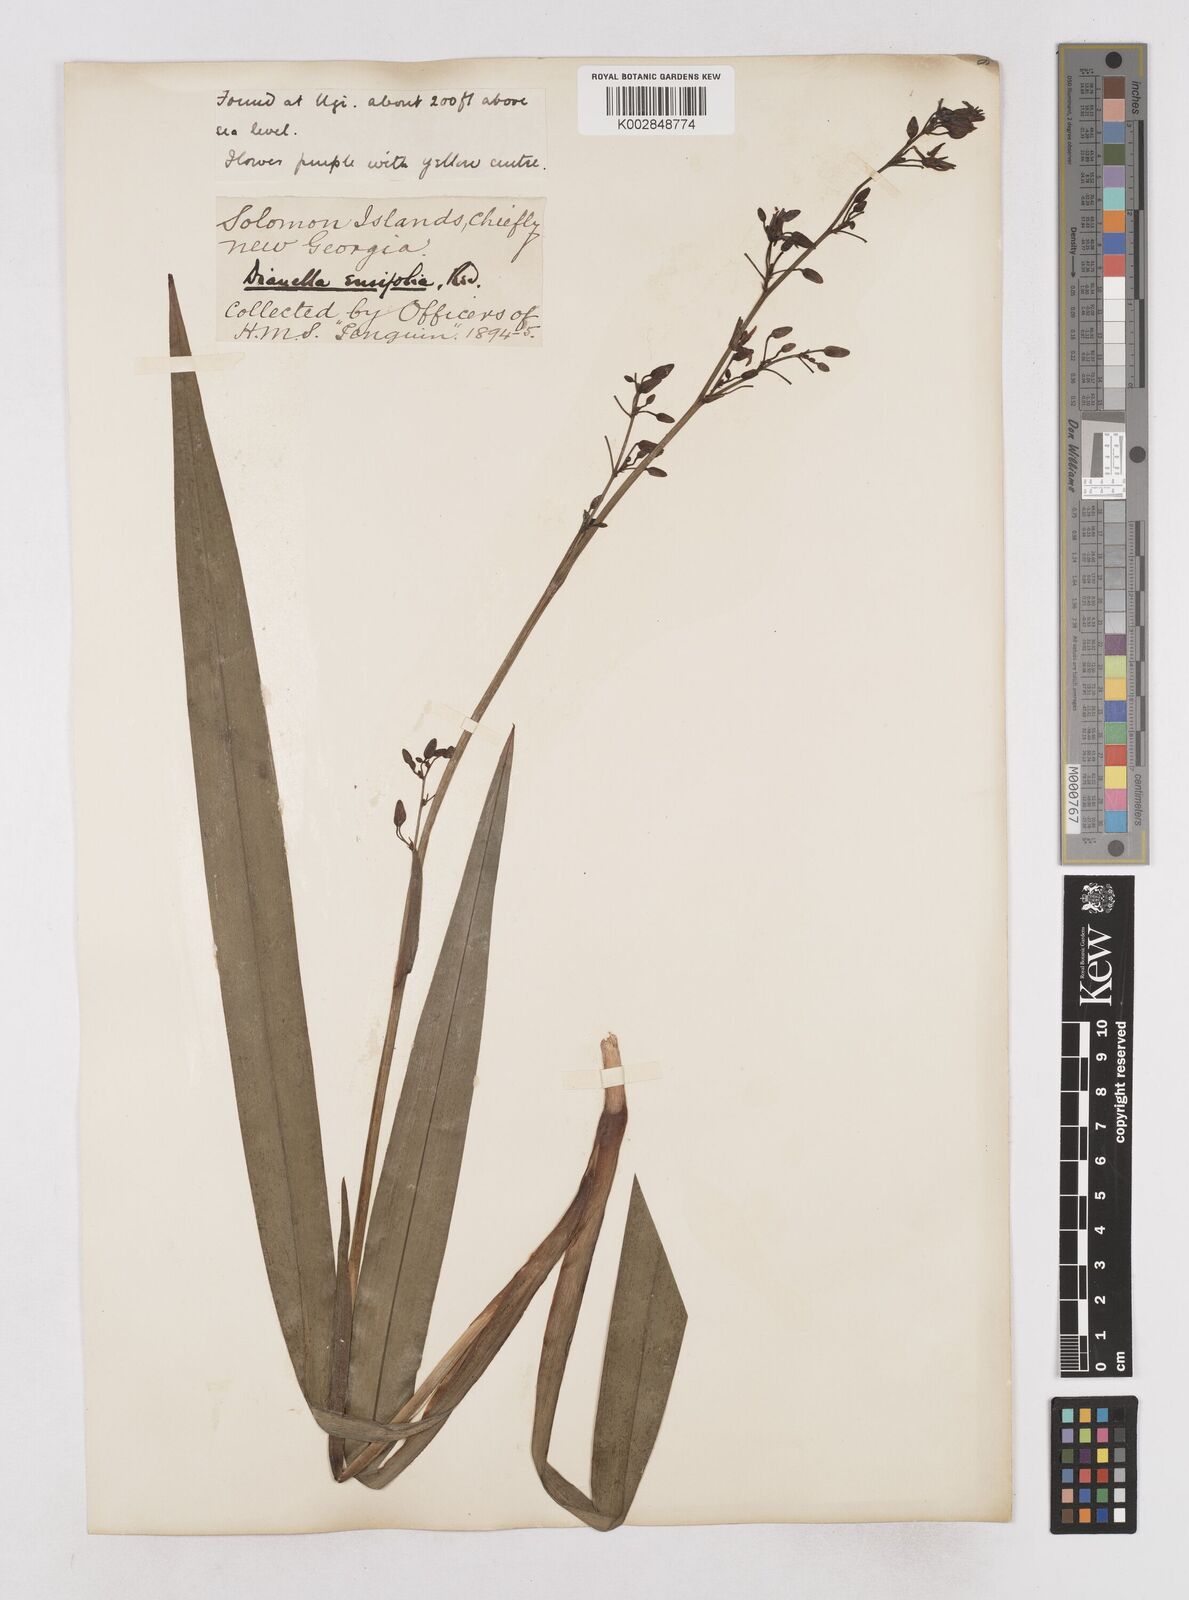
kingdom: Plantae
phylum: Tracheophyta
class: Liliopsida
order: Asparagales
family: Asphodelaceae
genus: Dianella
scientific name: Dianella ensifolia
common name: New zealand lilyplant
